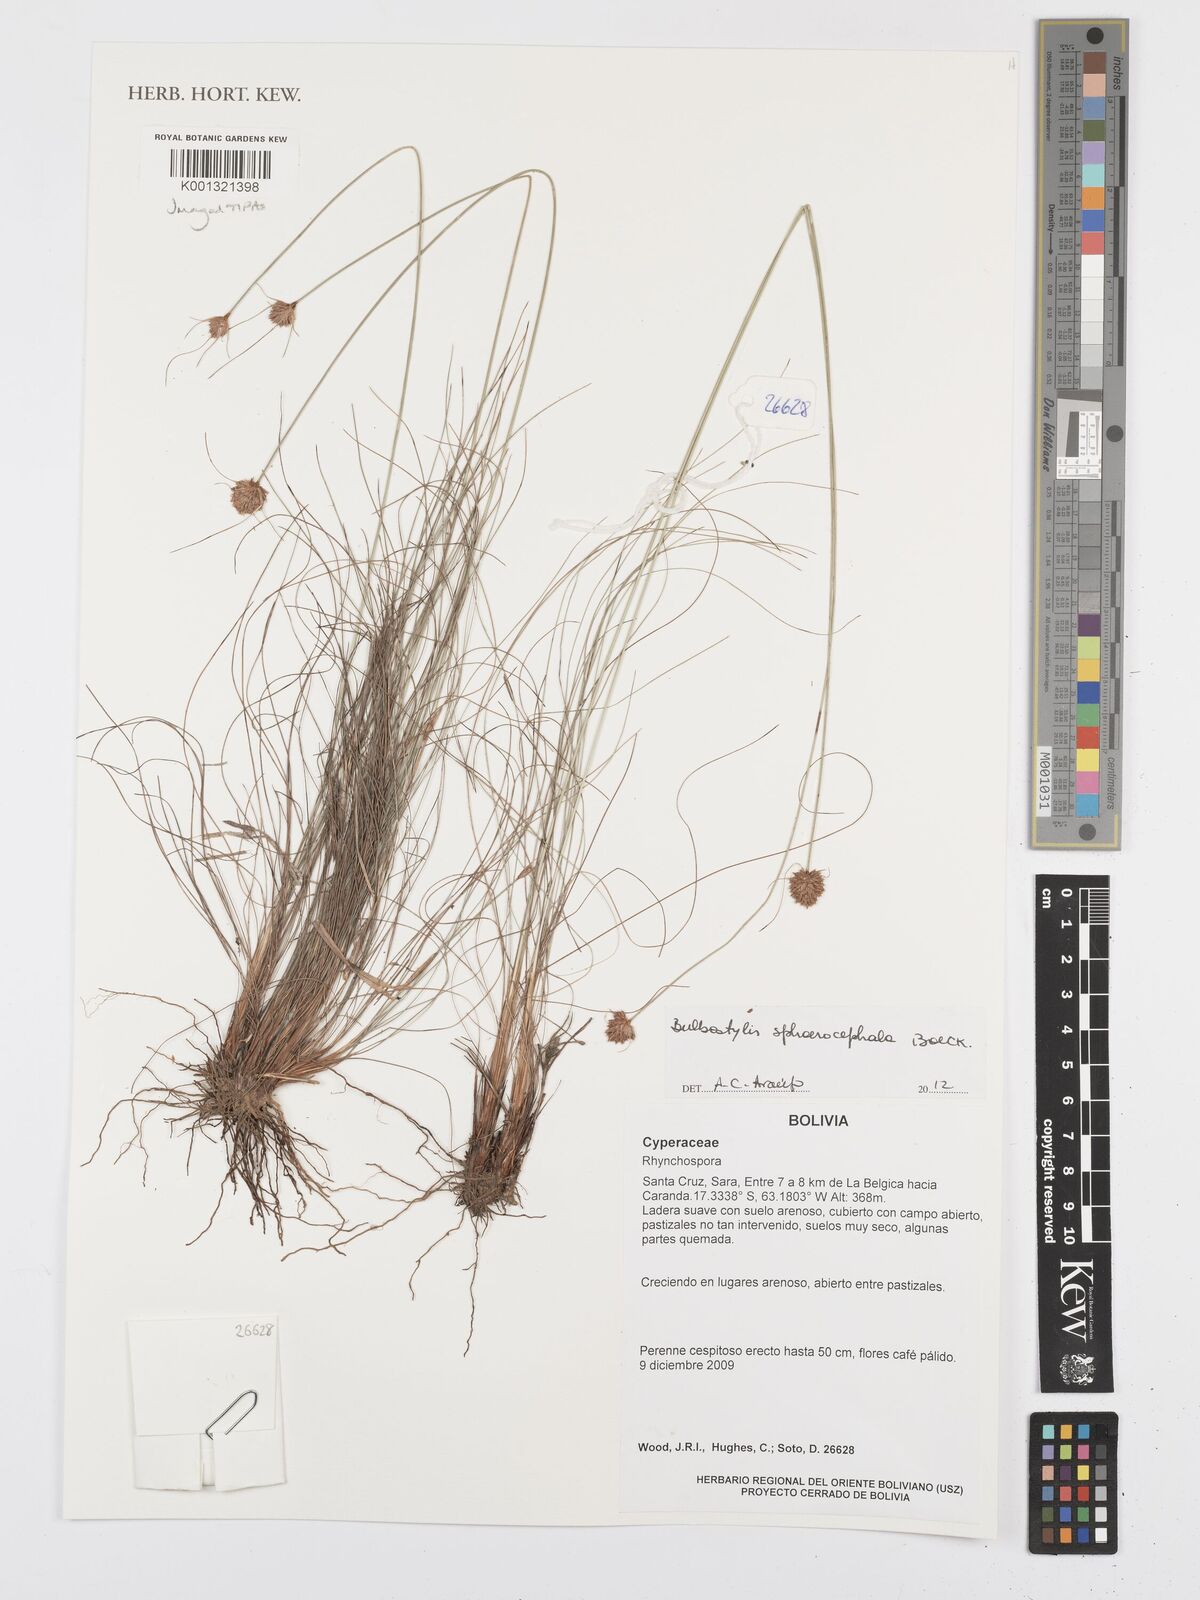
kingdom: Plantae
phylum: Tracheophyta
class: Liliopsida
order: Poales
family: Cyperaceae
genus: Bulbostylis
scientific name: Bulbostylis sphaerocephala
